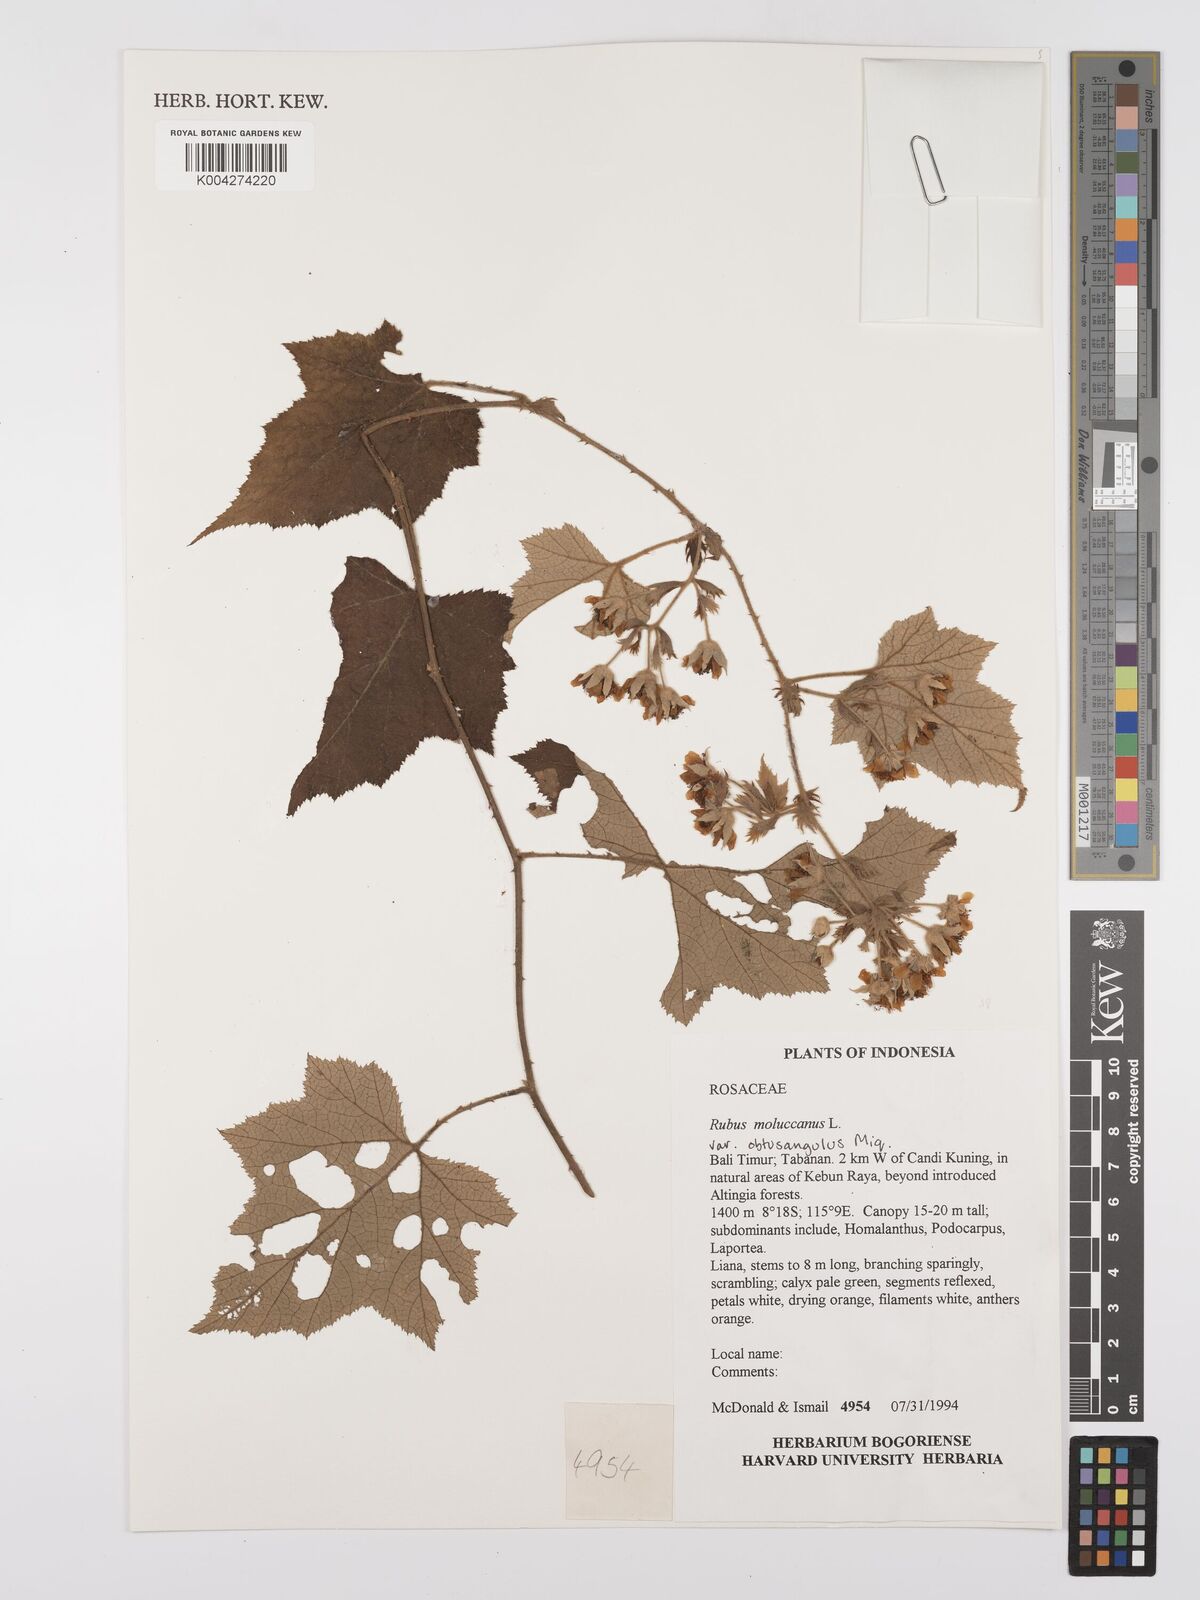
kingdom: Plantae
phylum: Tracheophyta
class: Magnoliopsida
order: Rosales
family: Rosaceae
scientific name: Rosaceae
